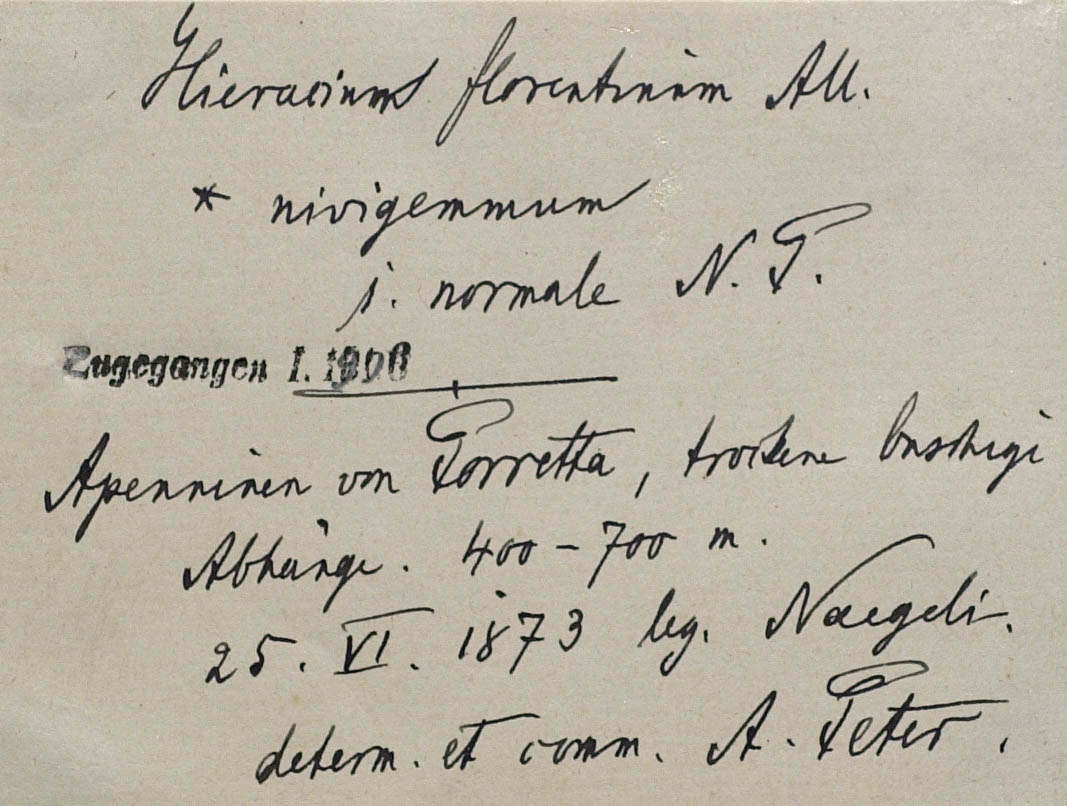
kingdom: Plantae
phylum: Tracheophyta
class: Magnoliopsida
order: Asterales
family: Asteraceae
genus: Pilosella
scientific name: Pilosella piloselloides
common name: Glaucous king-devil
